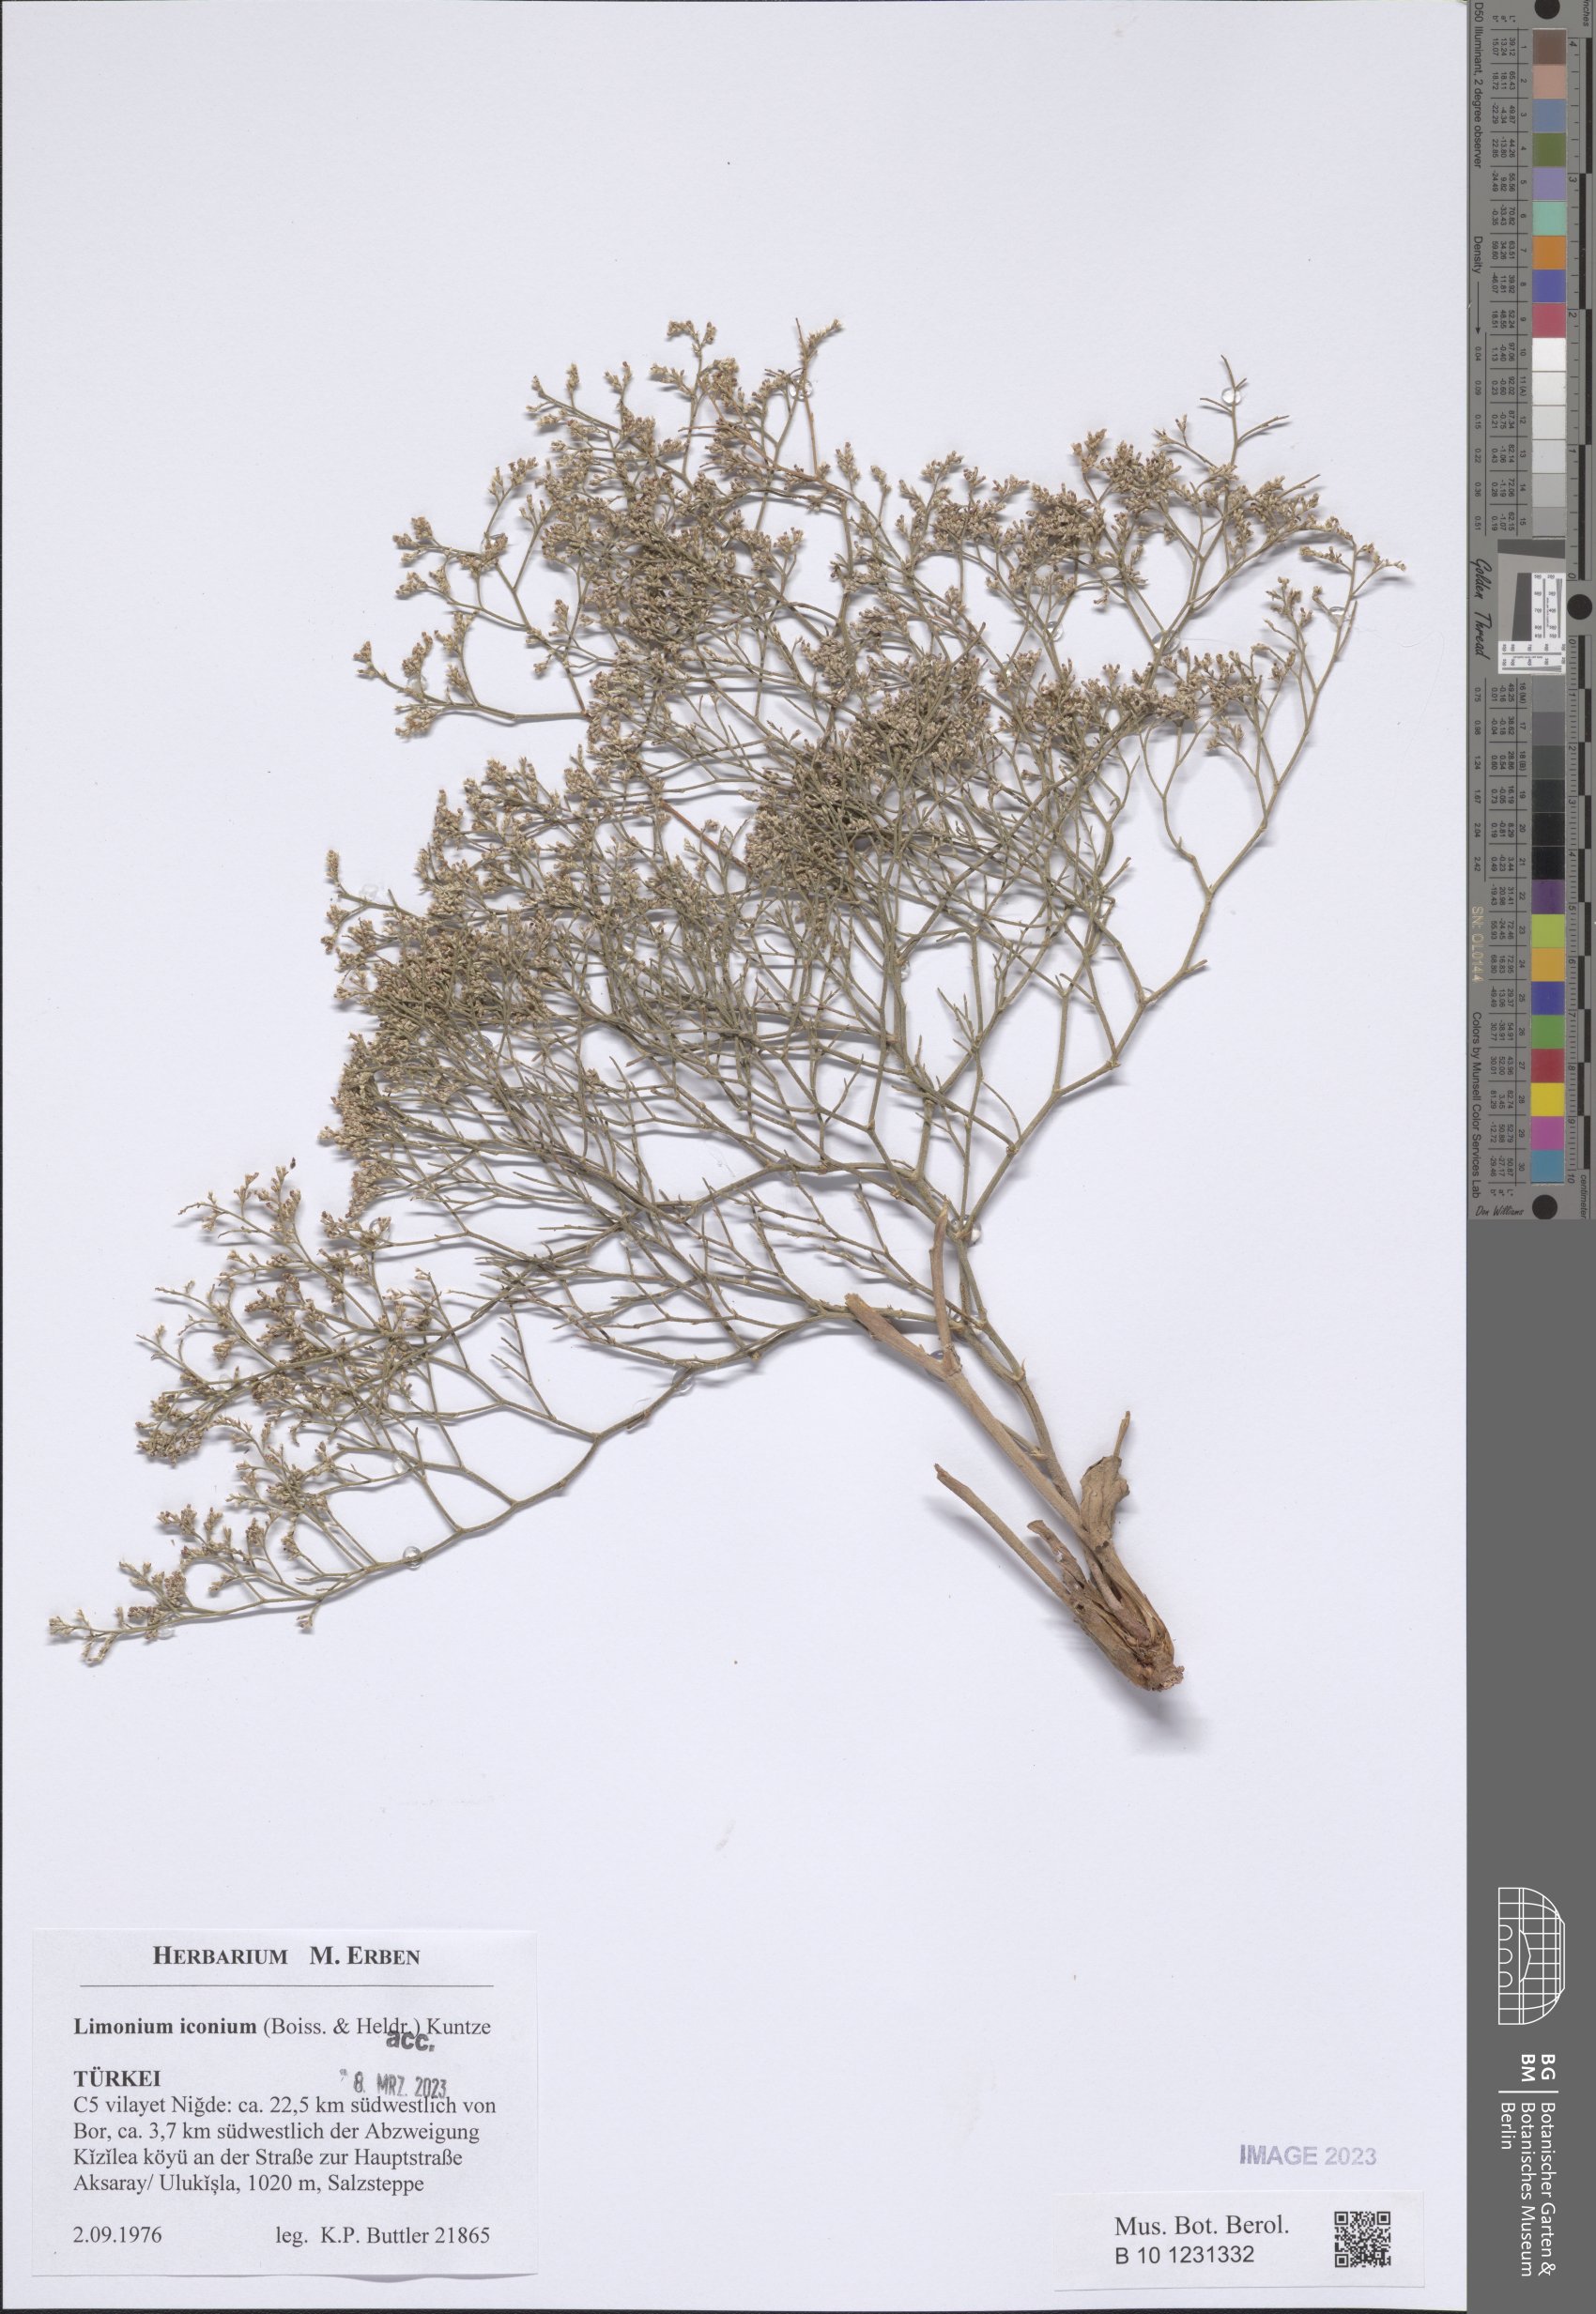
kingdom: Plantae
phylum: Tracheophyta
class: Magnoliopsida
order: Caryophyllales
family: Plumbaginaceae
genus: Limonium
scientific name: Limonium iconium
